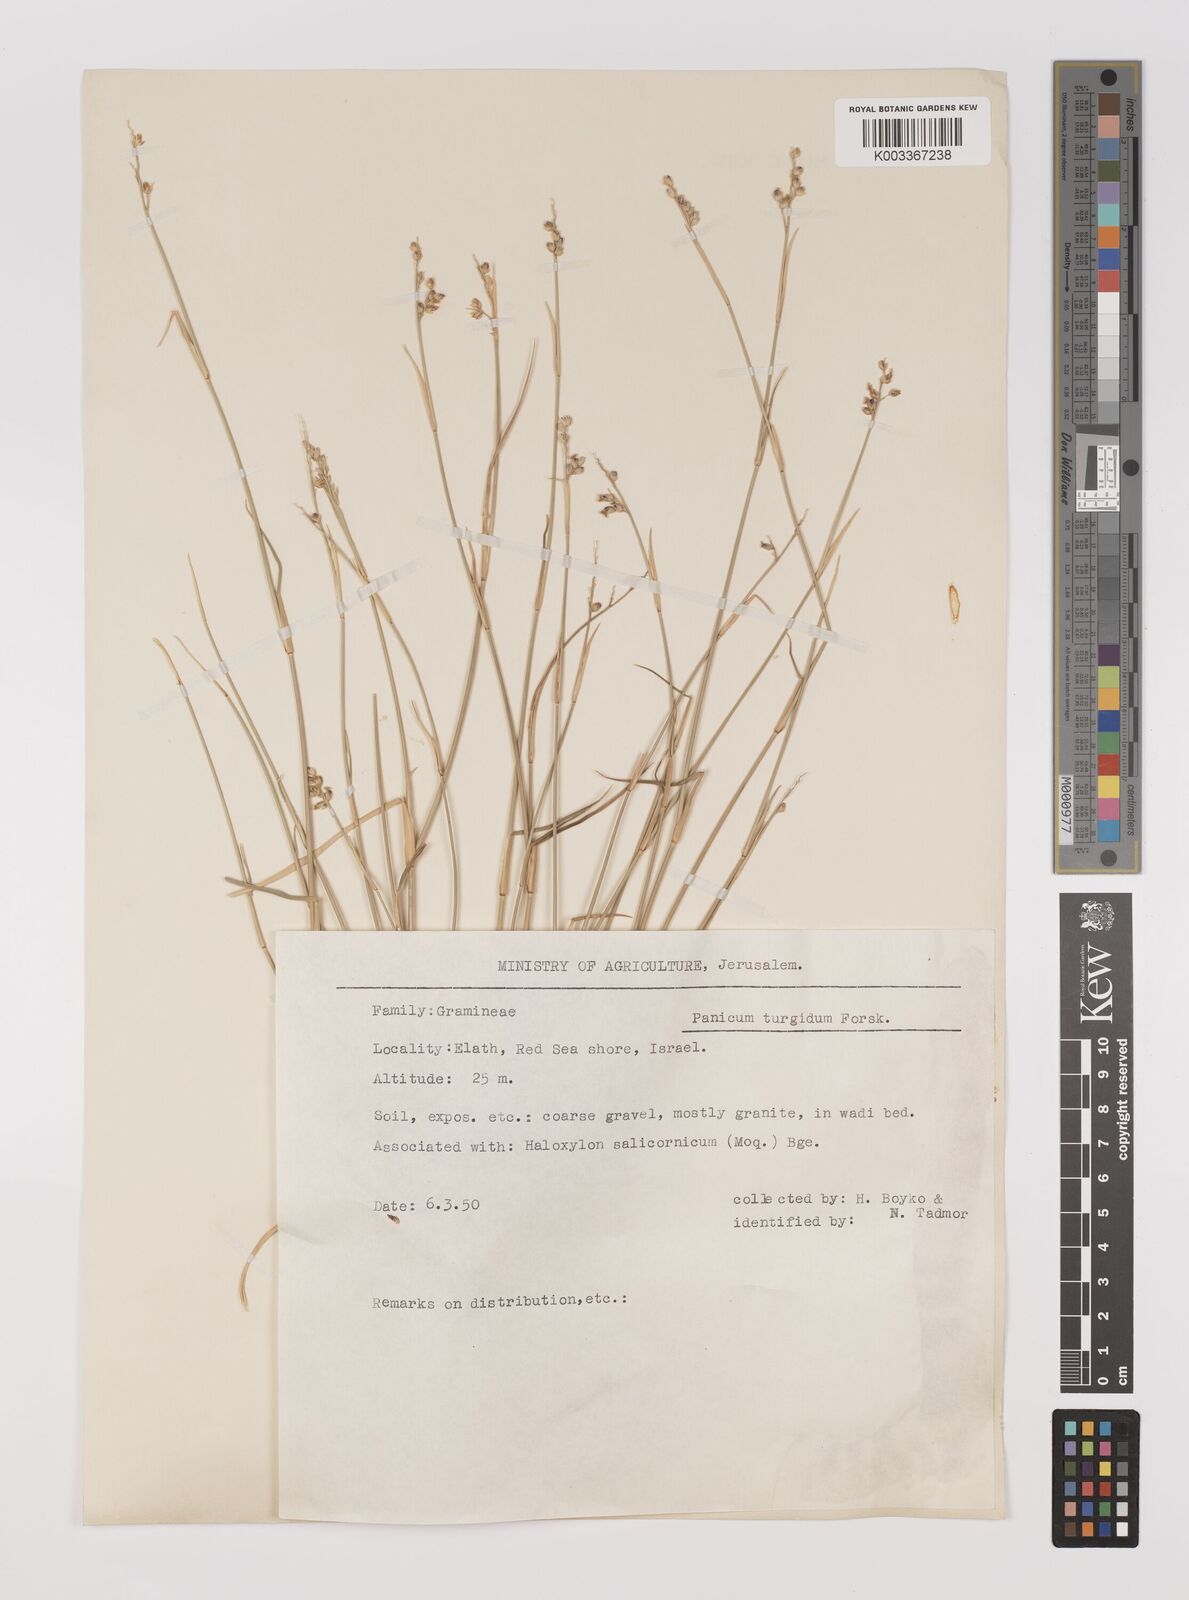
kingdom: Plantae
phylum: Tracheophyta
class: Liliopsida
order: Poales
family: Poaceae
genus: Panicum
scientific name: Panicum turgidum
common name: Desert grass
